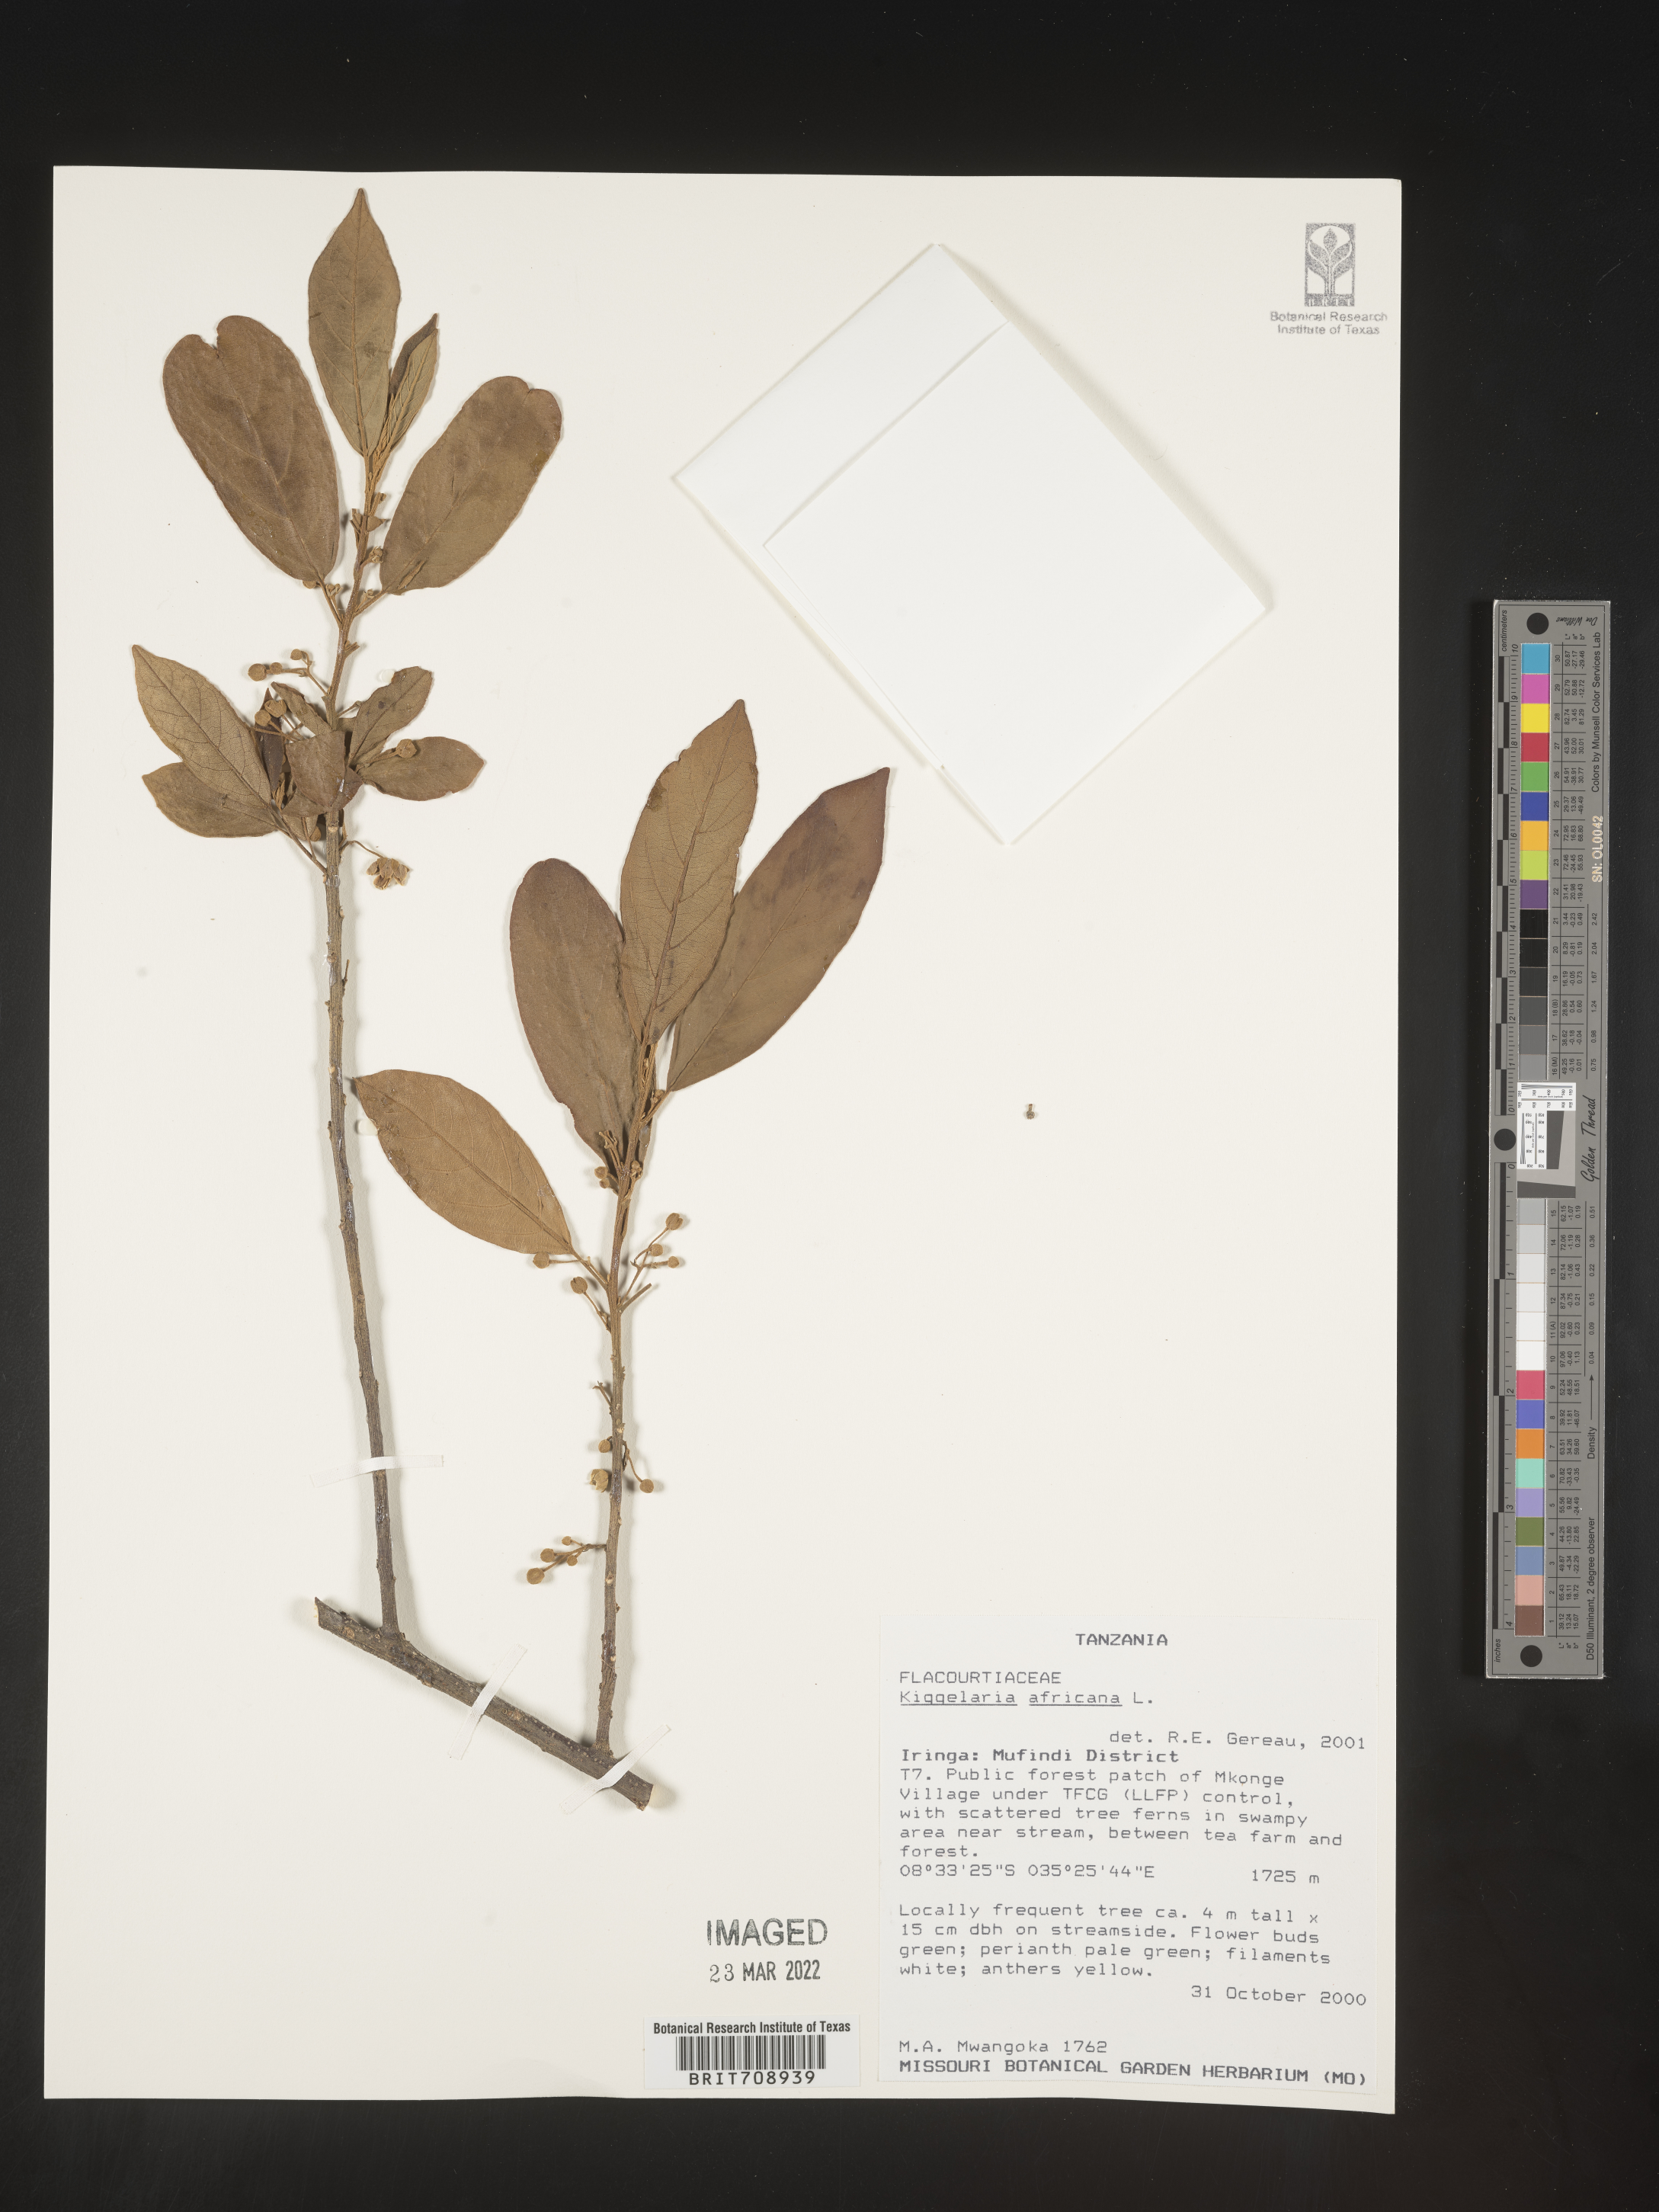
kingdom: Plantae
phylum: Tracheophyta
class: Magnoliopsida
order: Malpighiales
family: Achariaceae
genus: Kiggelaria
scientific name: Kiggelaria
